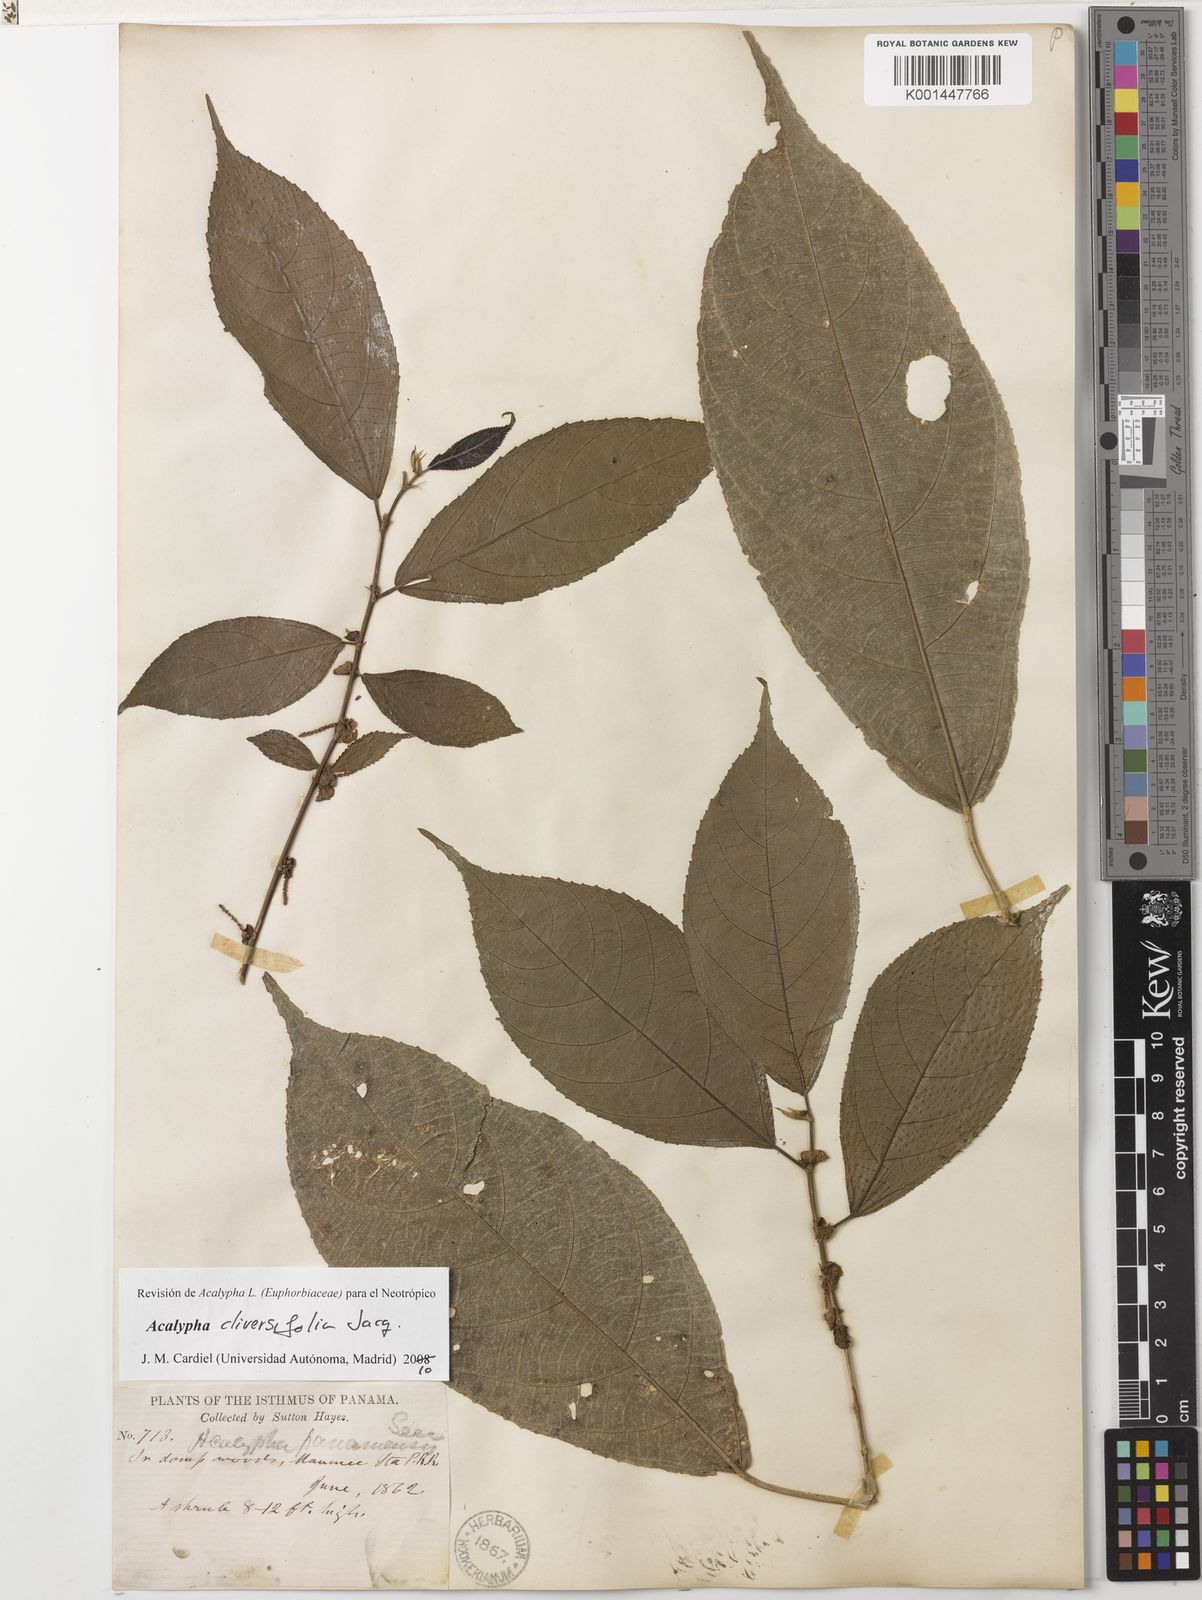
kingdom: Plantae
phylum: Tracheophyta
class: Magnoliopsida
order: Malpighiales
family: Euphorbiaceae
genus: Acalypha
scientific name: Acalypha diversifolia
